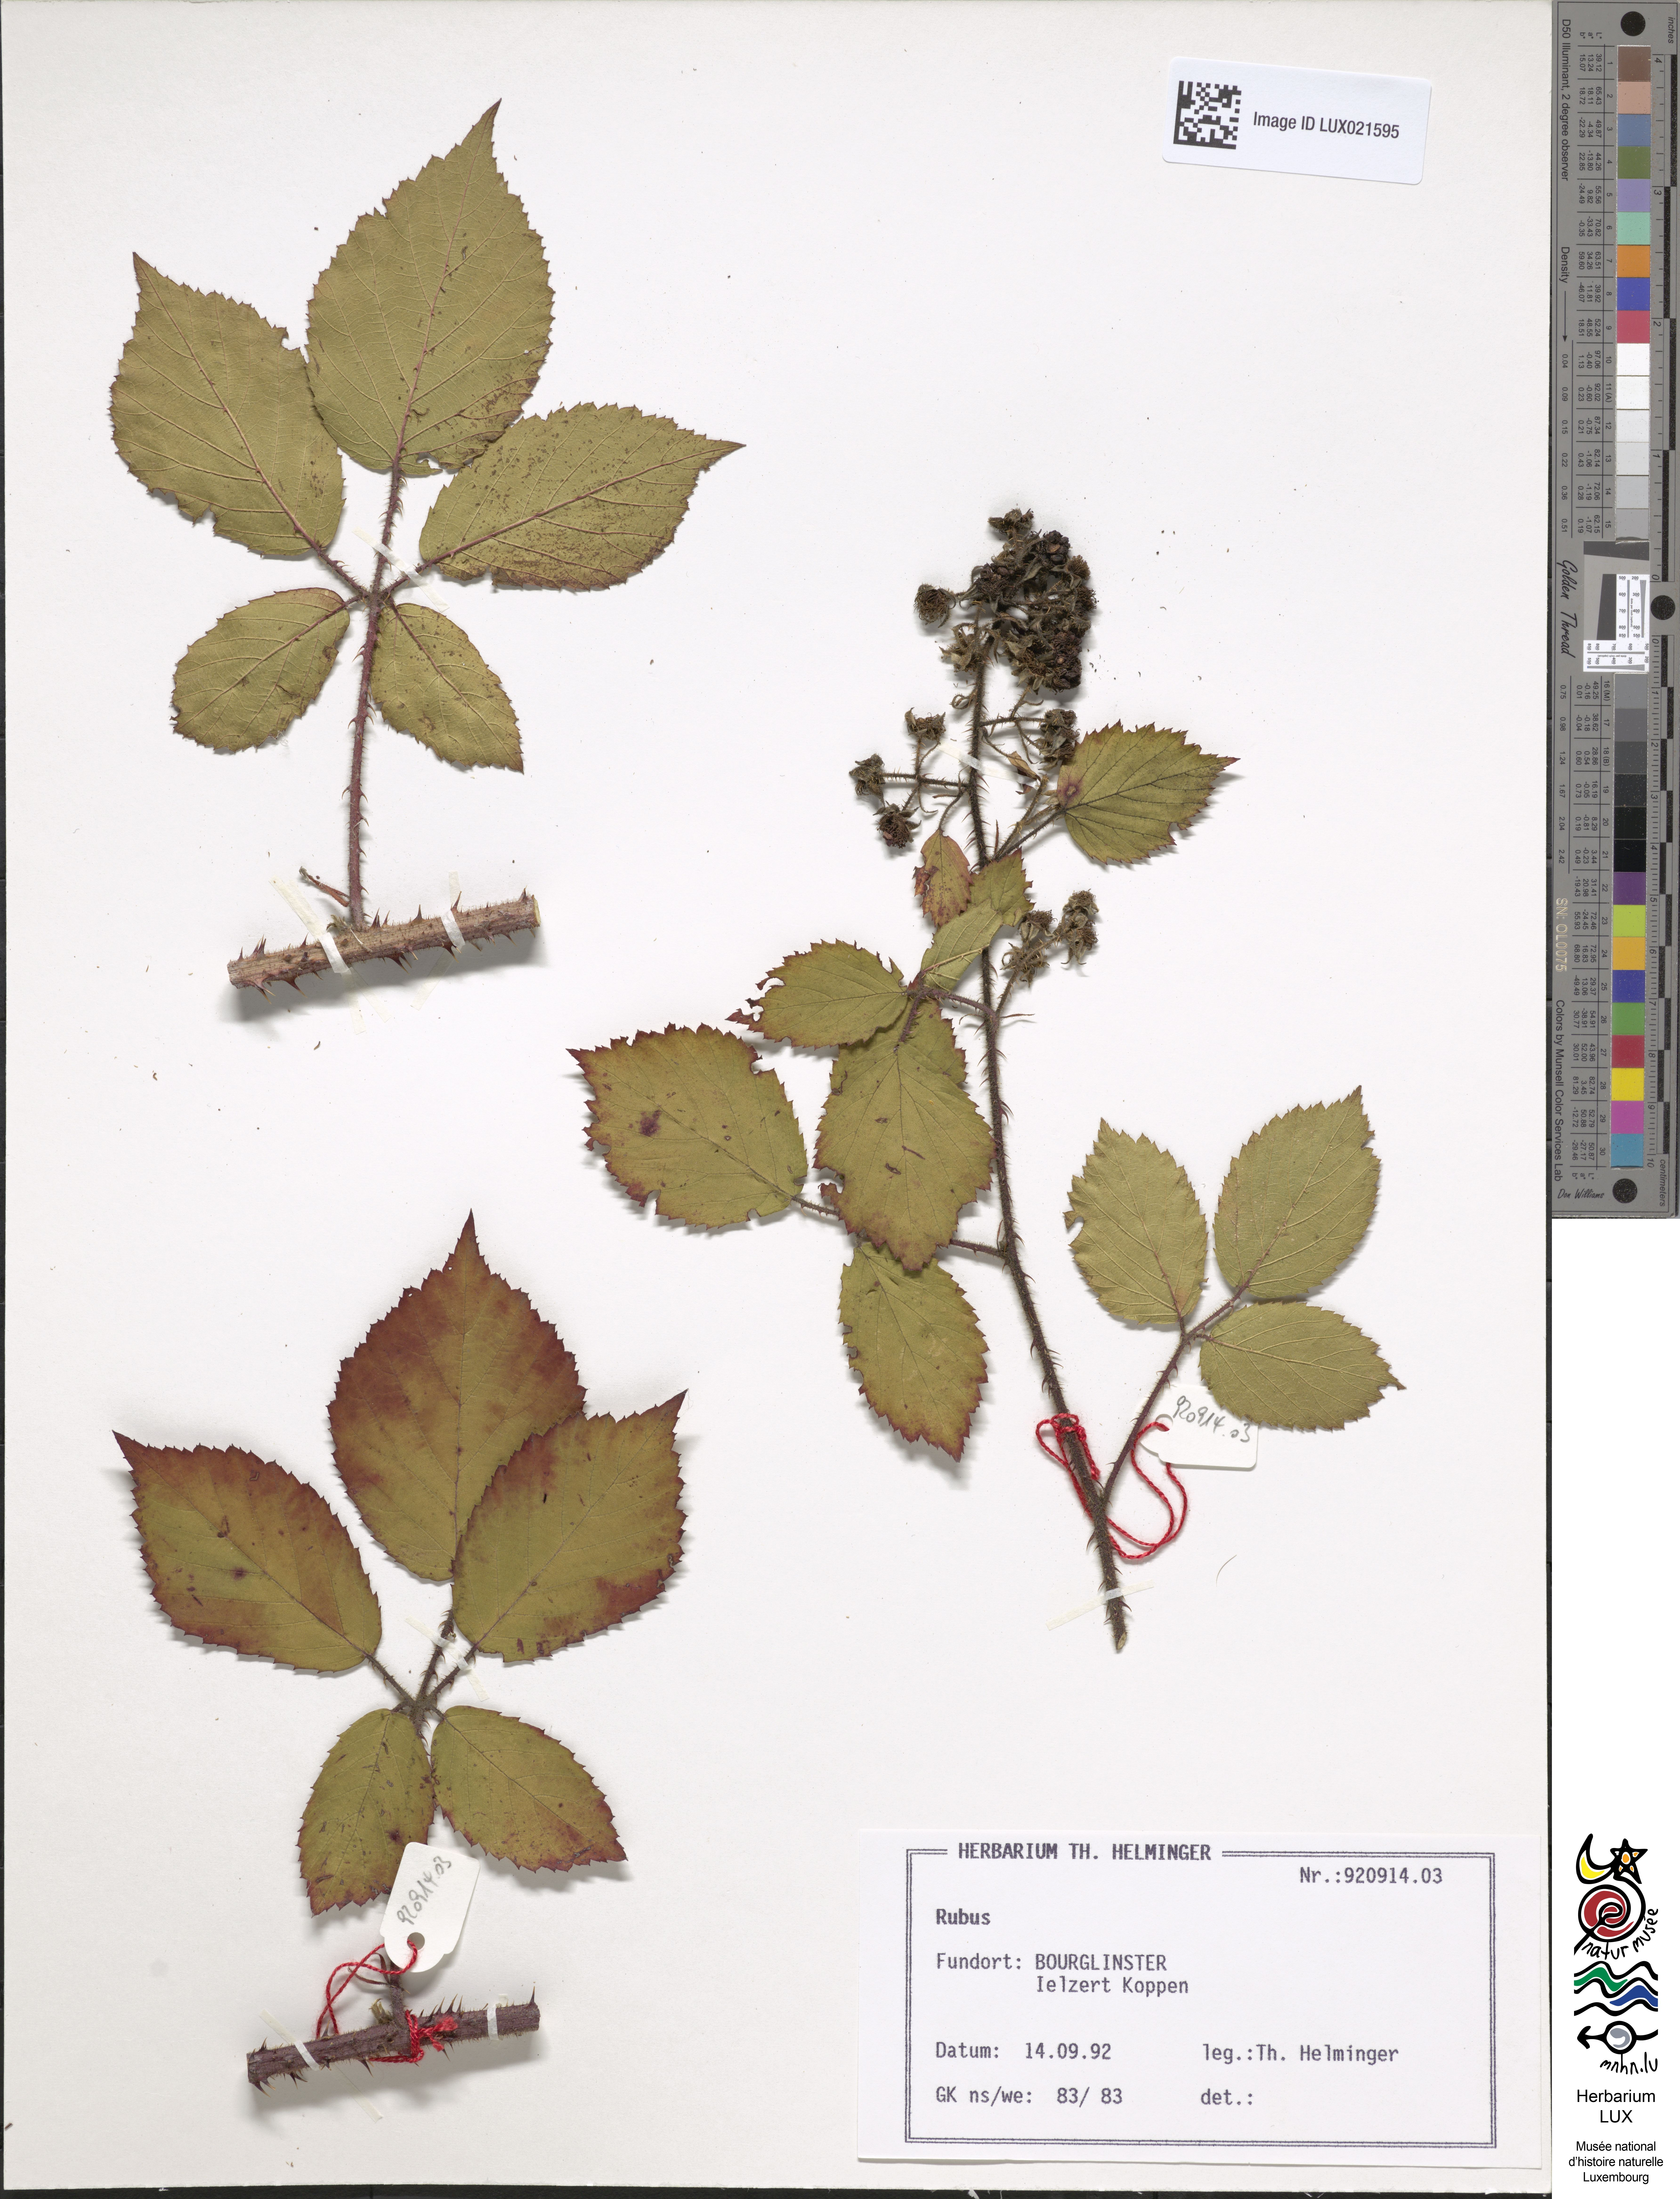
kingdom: Plantae
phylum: Tracheophyta
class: Magnoliopsida
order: Rosales
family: Rosaceae
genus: Rubus
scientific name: Rubus
